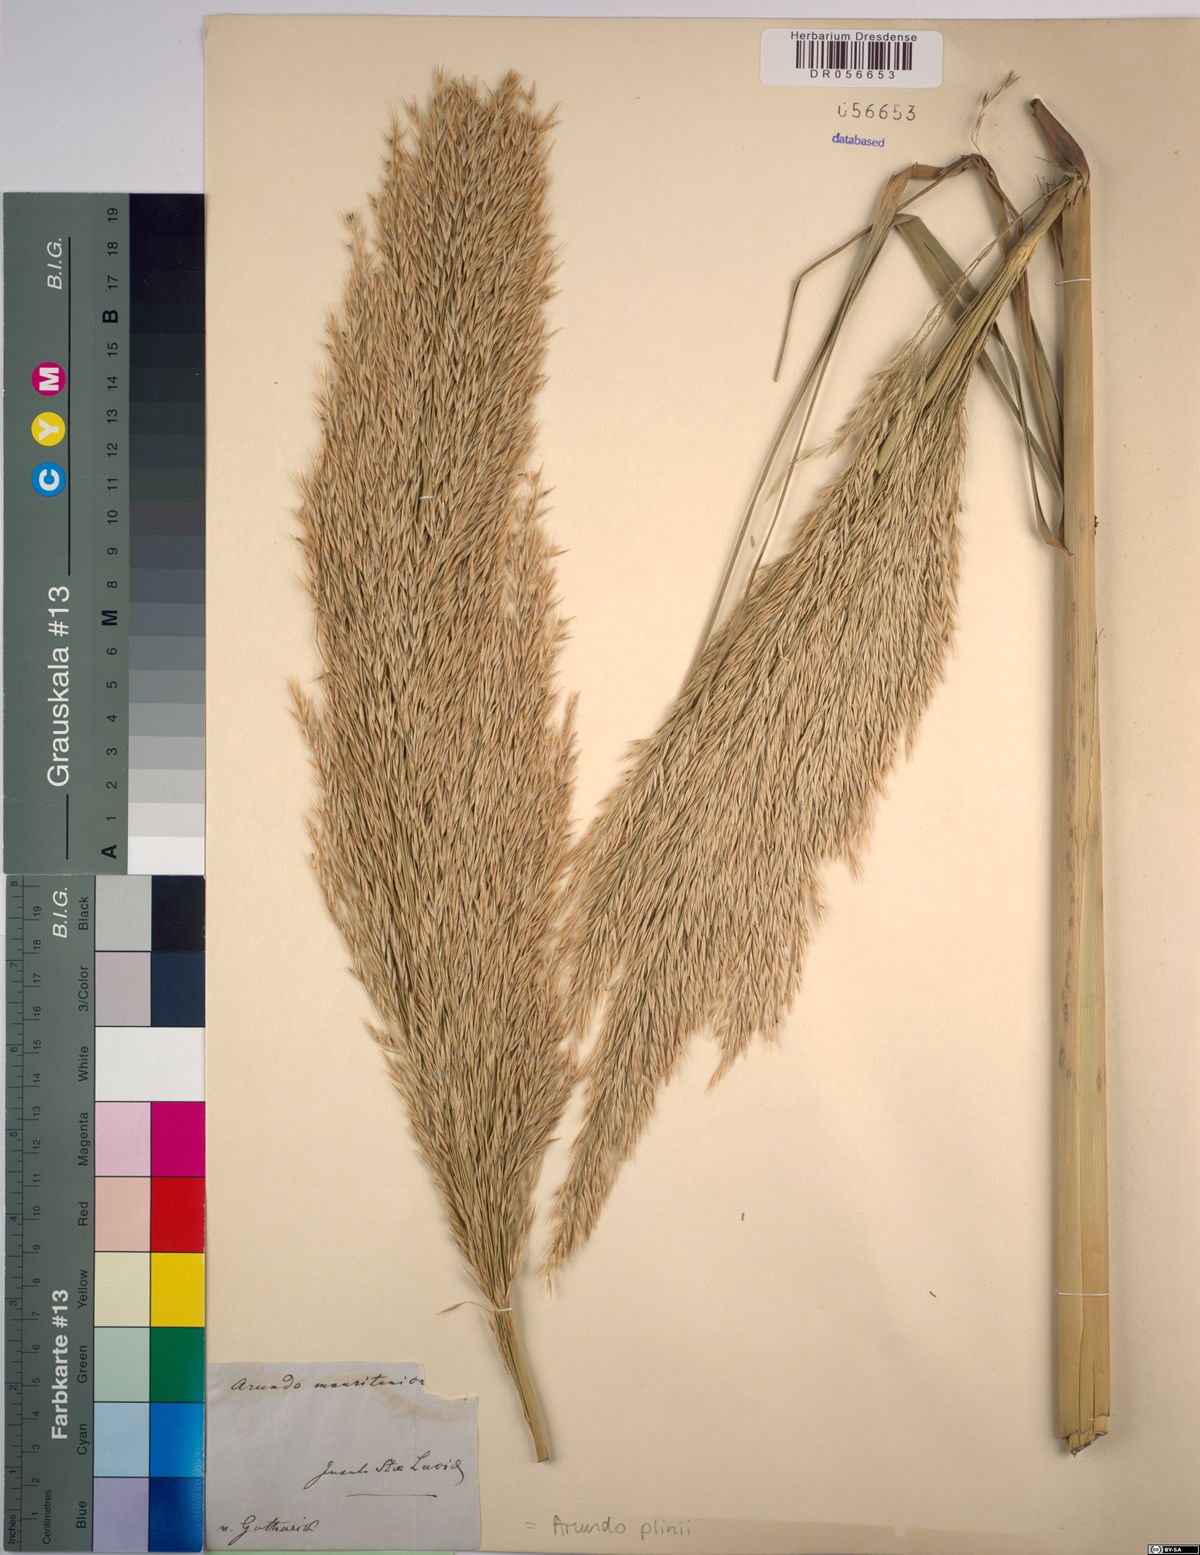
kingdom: Plantae
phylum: Tracheophyta
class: Liliopsida
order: Poales
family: Poaceae
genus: Arundo
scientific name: Arundo plinii
